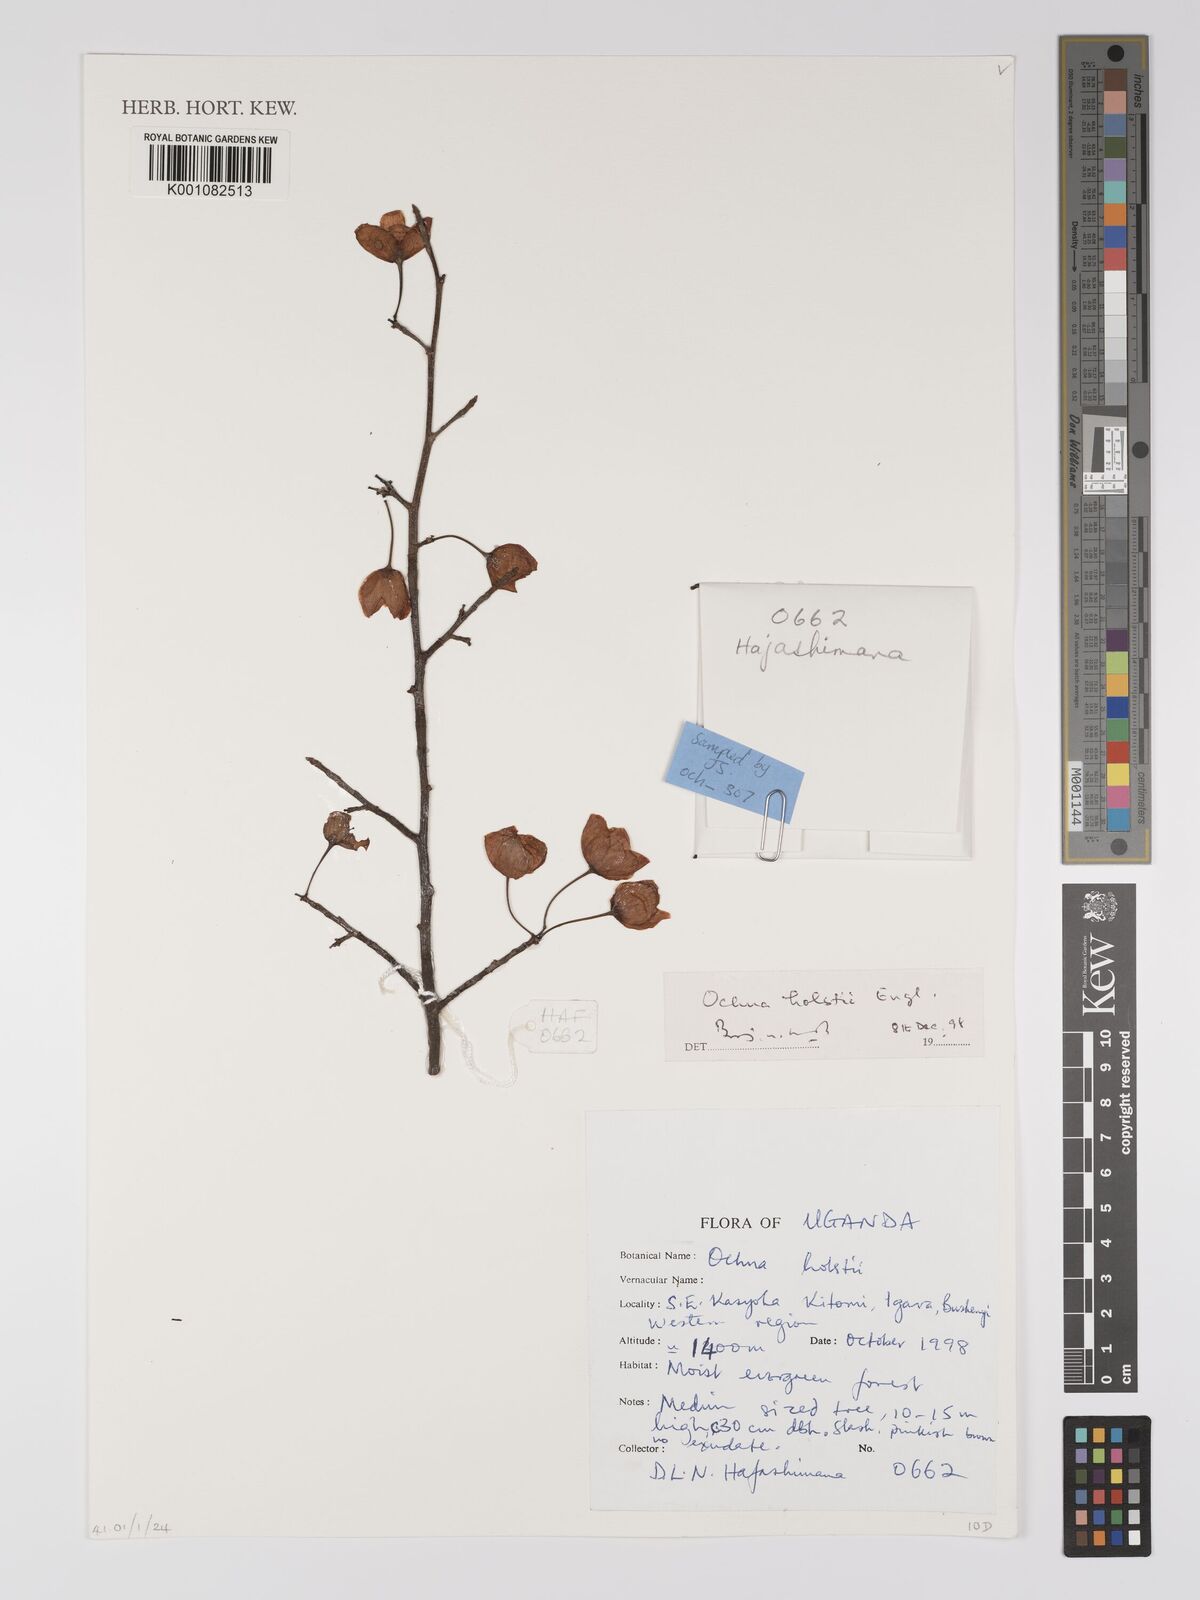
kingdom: Plantae
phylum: Tracheophyta
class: Magnoliopsida
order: Malpighiales
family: Ochnaceae
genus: Ochna
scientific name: Ochna puberula
